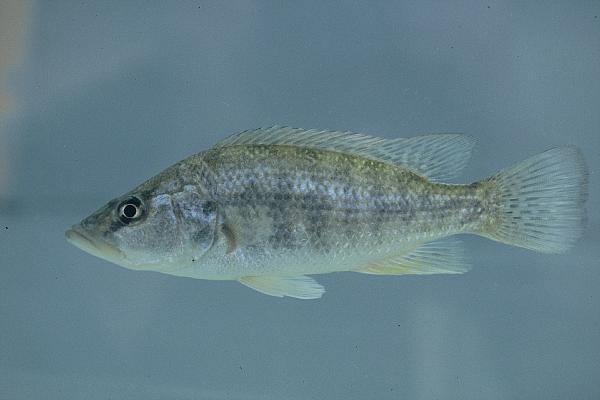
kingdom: Animalia
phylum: Chordata
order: Perciformes
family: Cichlidae
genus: Serranochromis
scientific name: Serranochromis macrocephalus
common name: Purpleface largemouth
